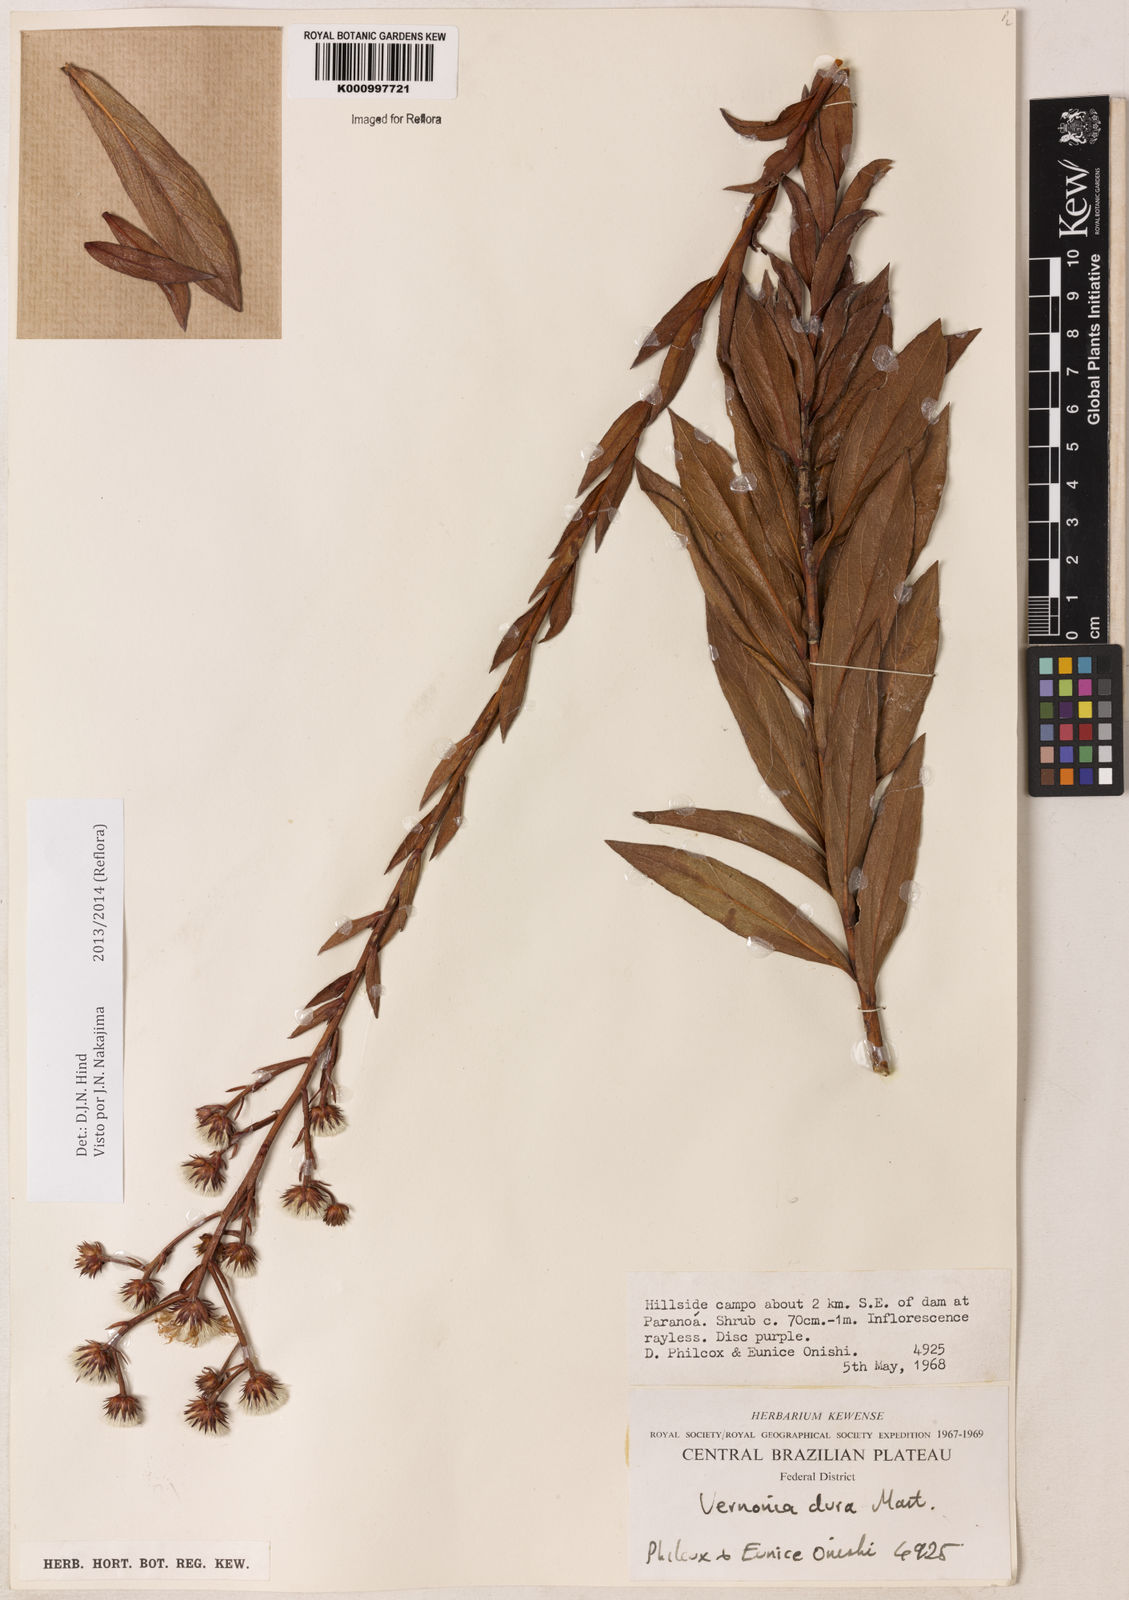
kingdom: Plantae
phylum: Tracheophyta
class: Magnoliopsida
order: Asterales
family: Asteraceae
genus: Lessingianthus
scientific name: Lessingianthus durus
